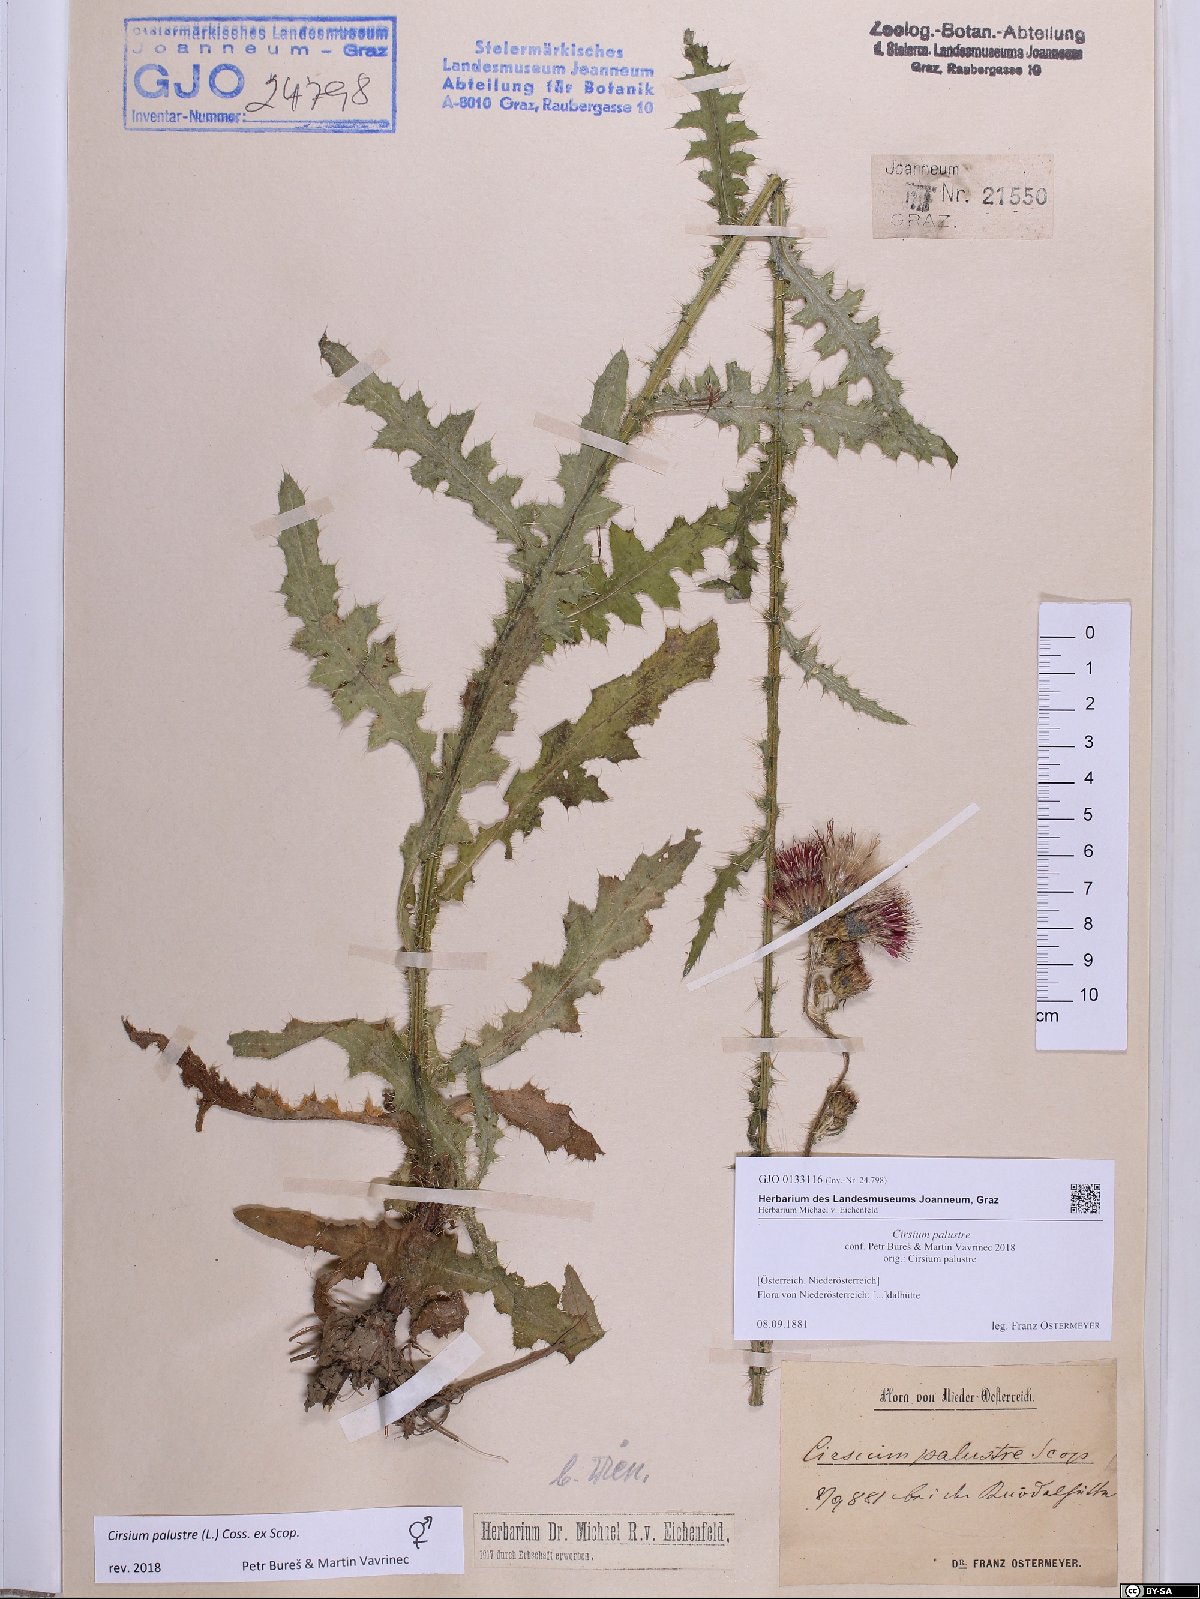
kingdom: Plantae
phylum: Tracheophyta
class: Magnoliopsida
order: Asterales
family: Asteraceae
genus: Cirsium
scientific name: Cirsium palustre
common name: Marsh thistle
